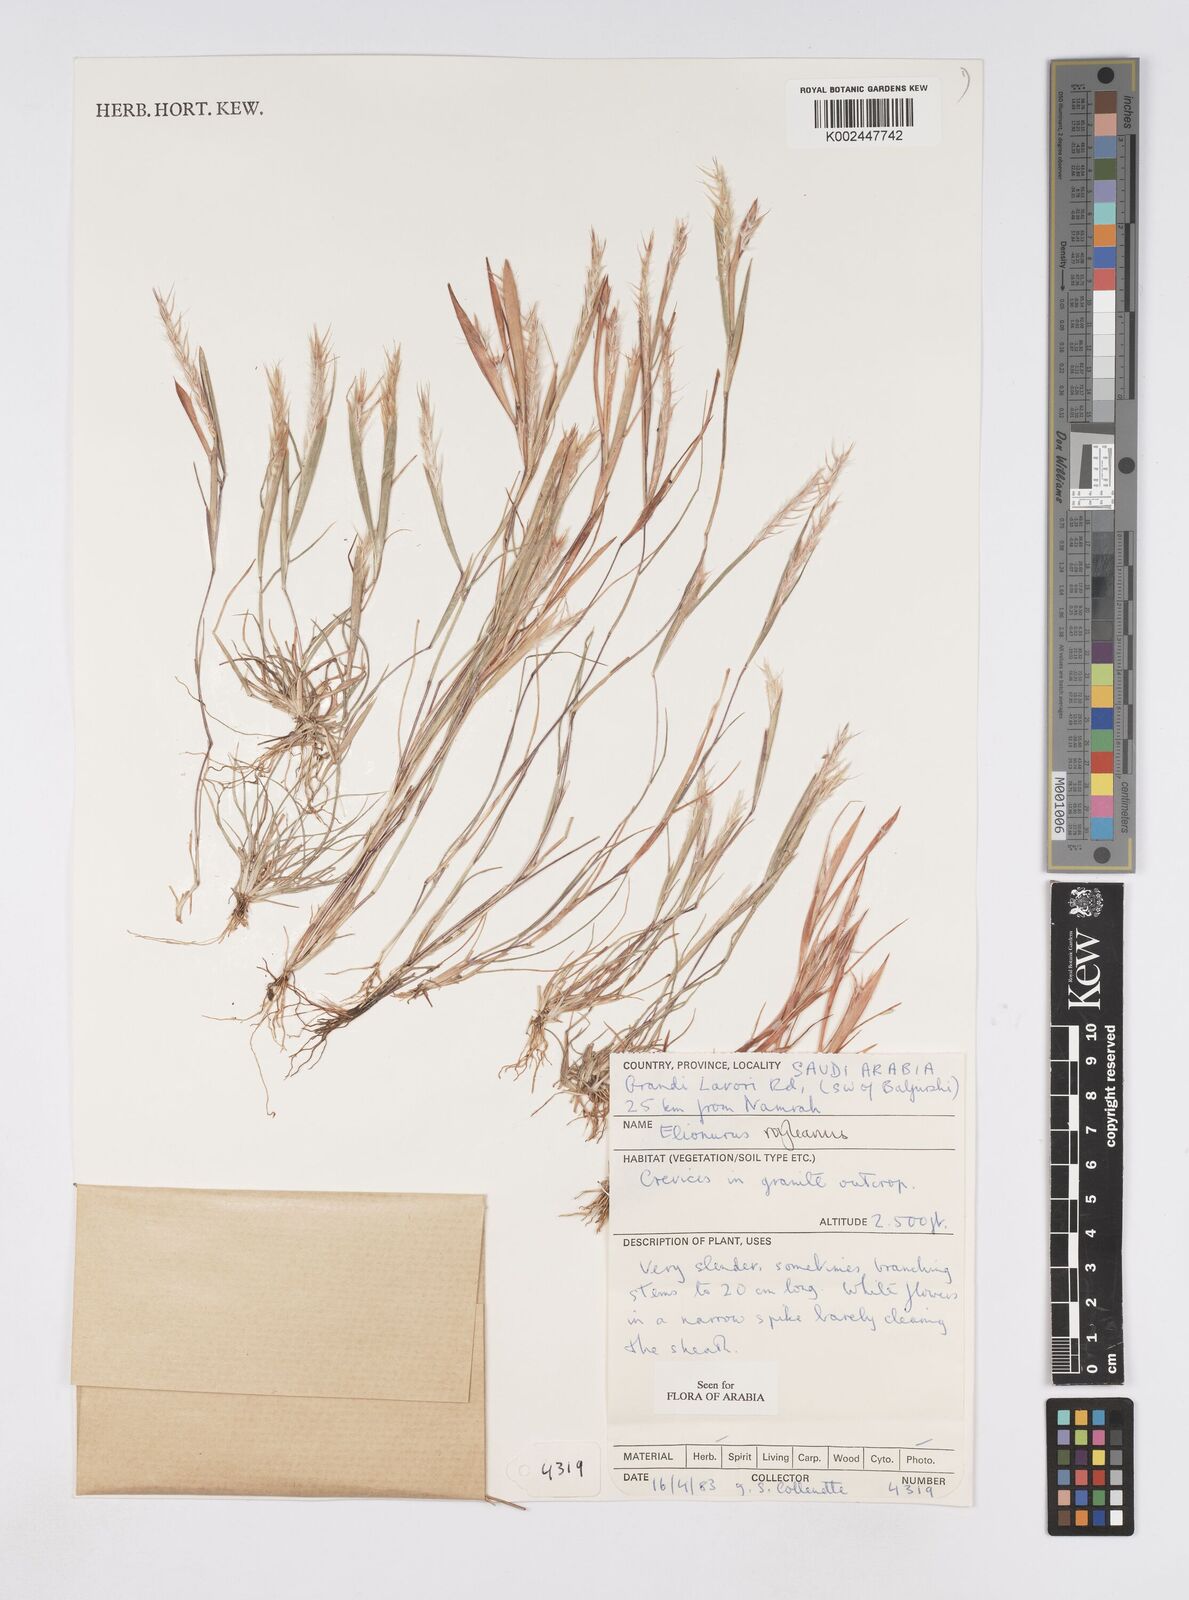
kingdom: Plantae
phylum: Tracheophyta
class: Liliopsida
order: Poales
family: Poaceae
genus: Elionurus
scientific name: Elionurus royleanus
